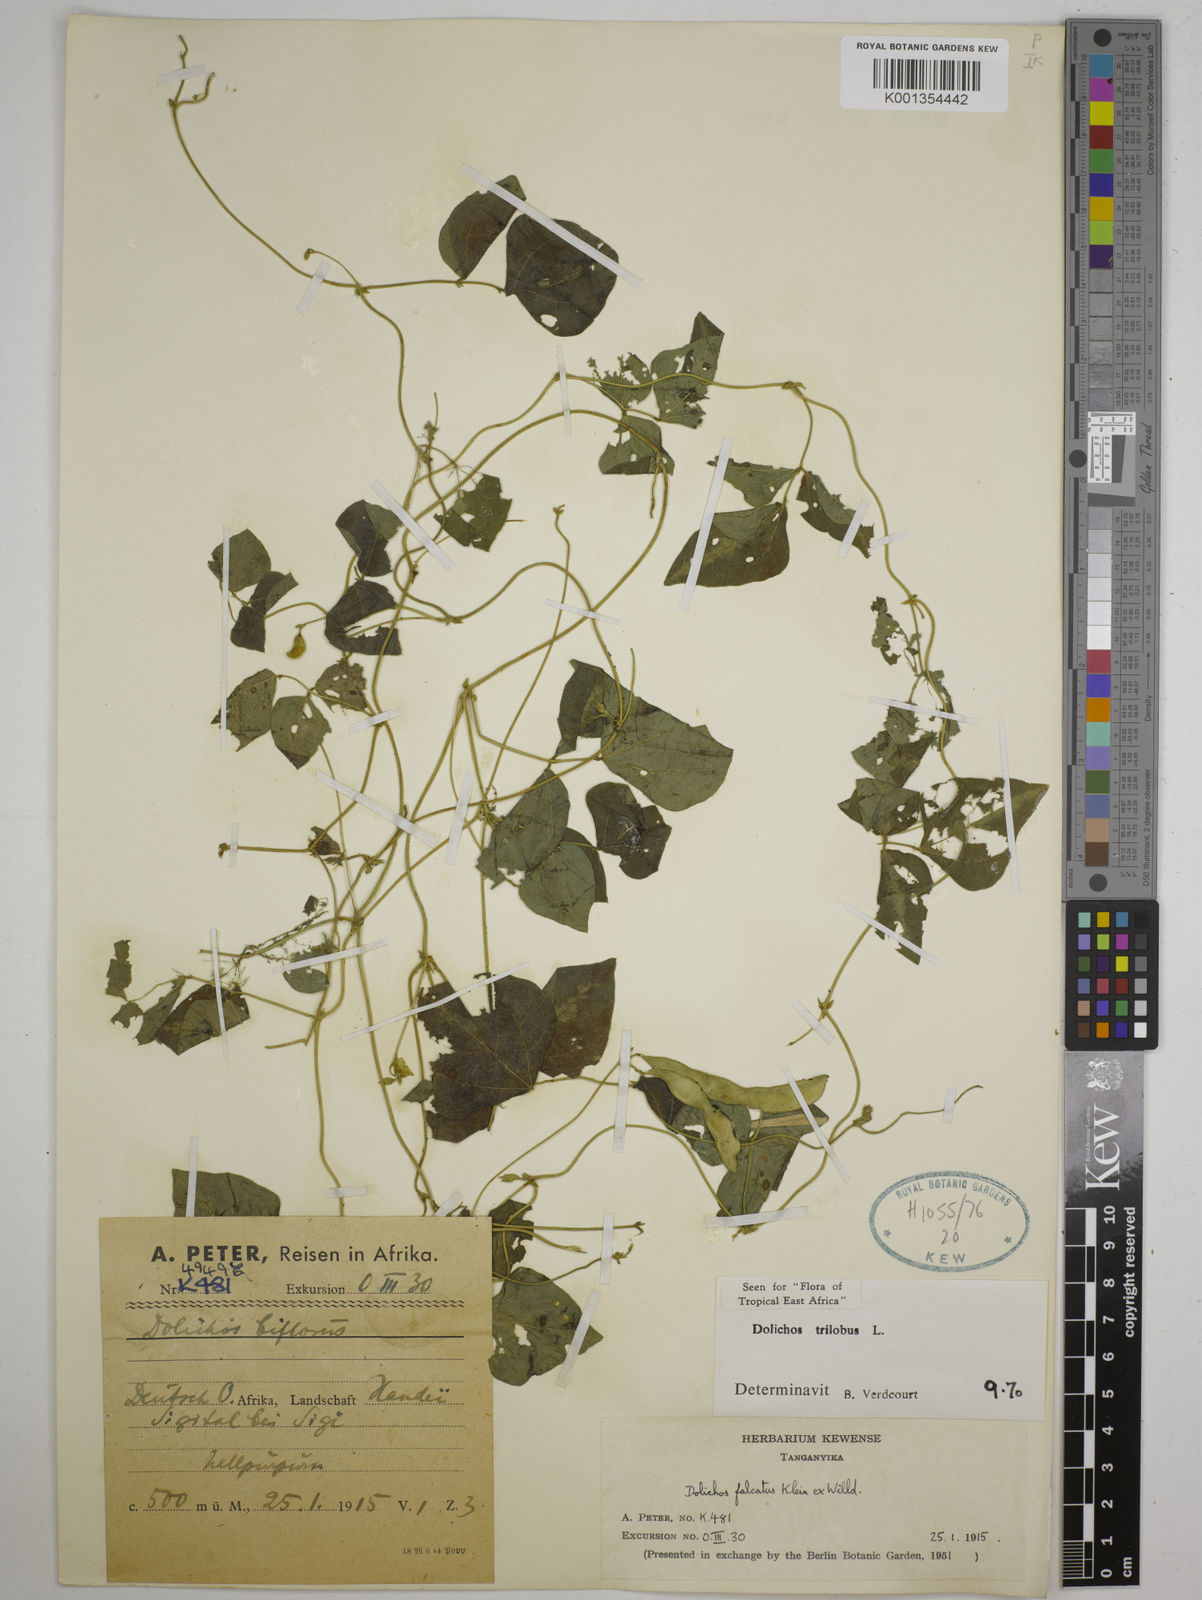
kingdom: Plantae
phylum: Tracheophyta
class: Magnoliopsida
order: Fabales
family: Fabaceae
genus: Dolichos
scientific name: Dolichos
